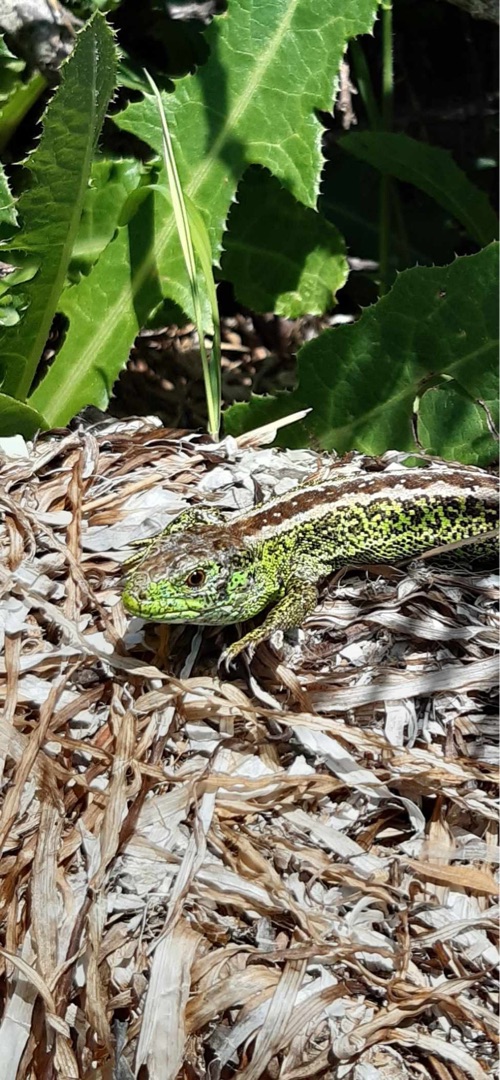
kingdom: Animalia
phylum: Chordata
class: Squamata
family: Lacertidae
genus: Lacerta
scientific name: Lacerta agilis
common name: Markfirben
